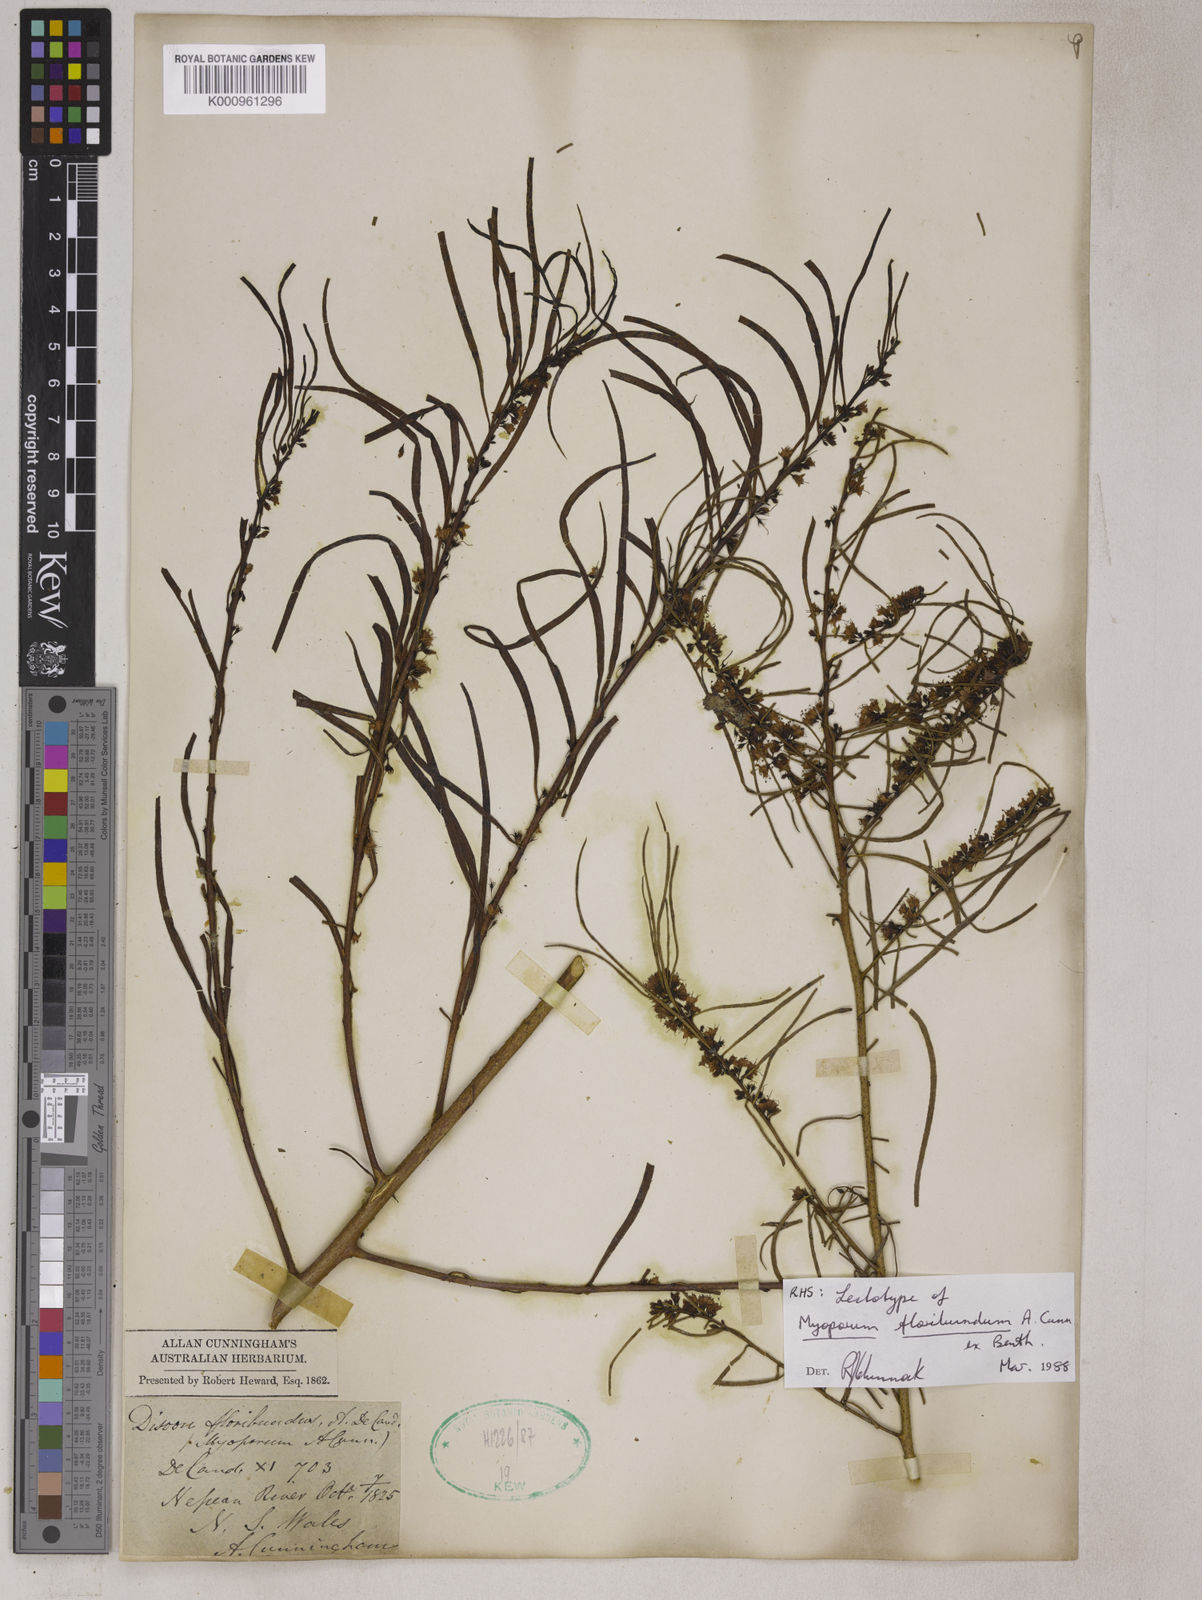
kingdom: Plantae
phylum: Tracheophyta
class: Magnoliopsida
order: Lamiales
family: Scrophulariaceae
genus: Myoporum
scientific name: Myoporum floribundum
